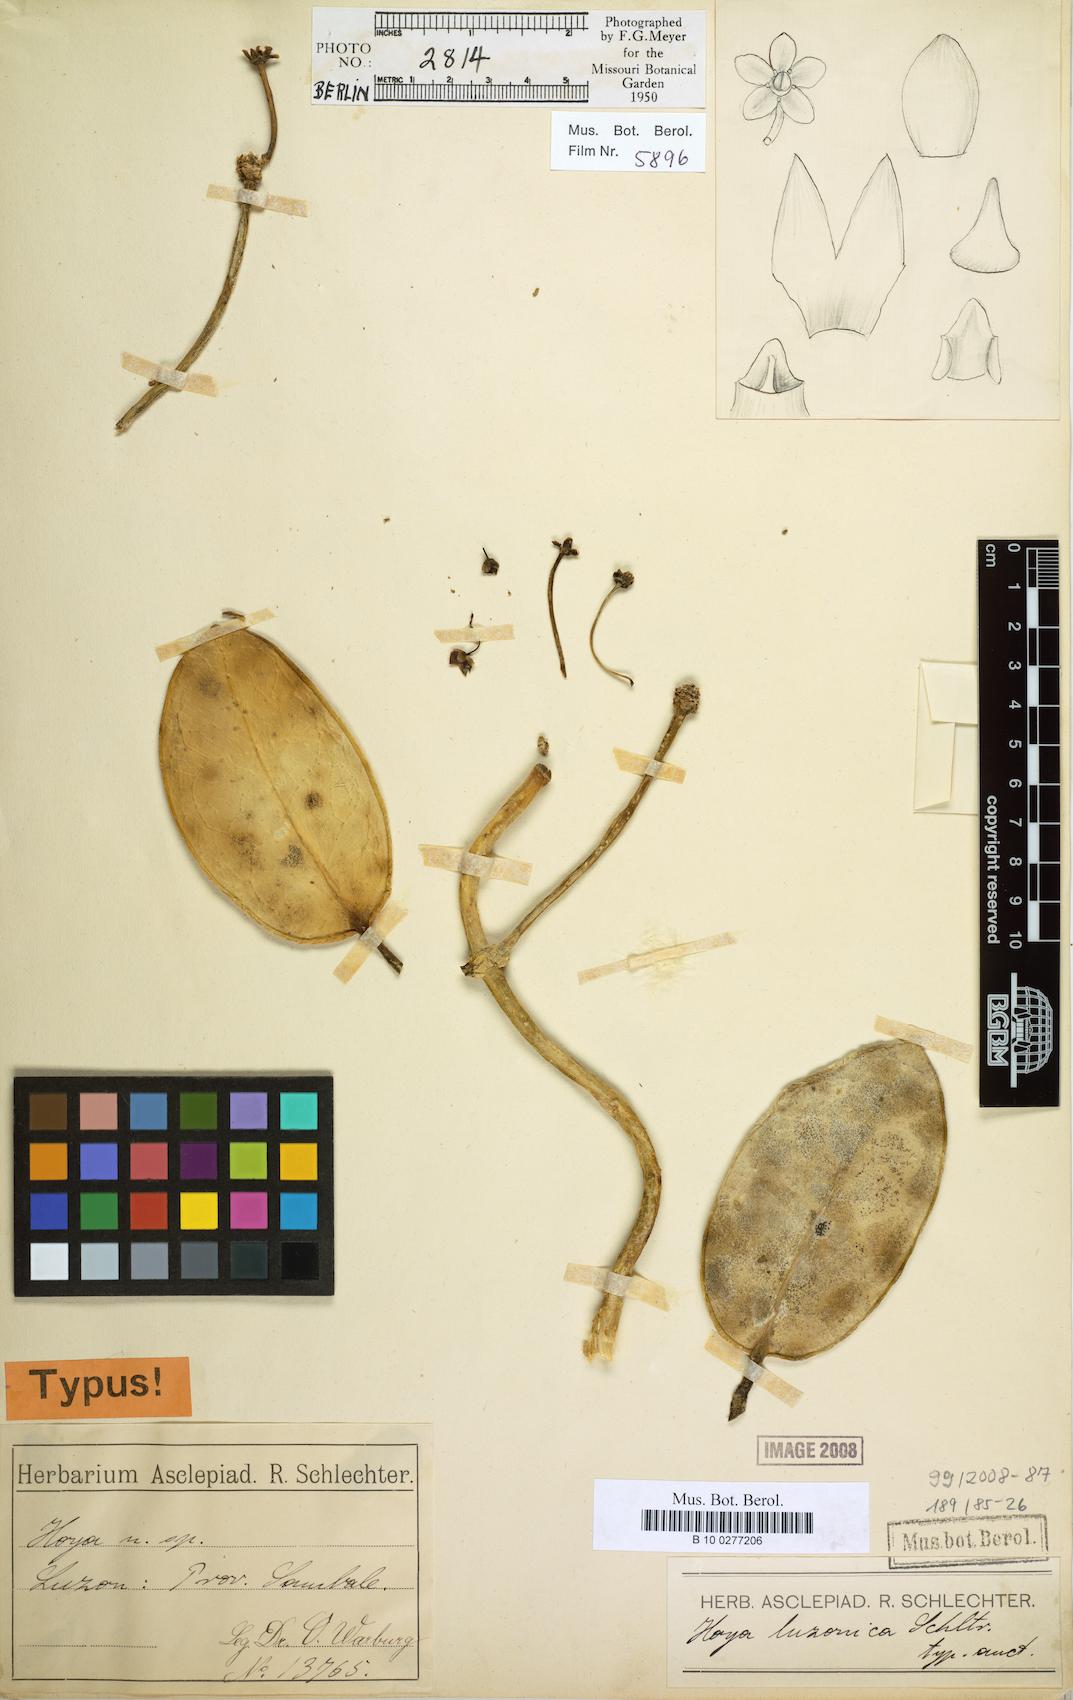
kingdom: Plantae
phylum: Tracheophyta
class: Magnoliopsida
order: Gentianales
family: Apocynaceae
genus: Hoya
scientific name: Hoya meliflua
